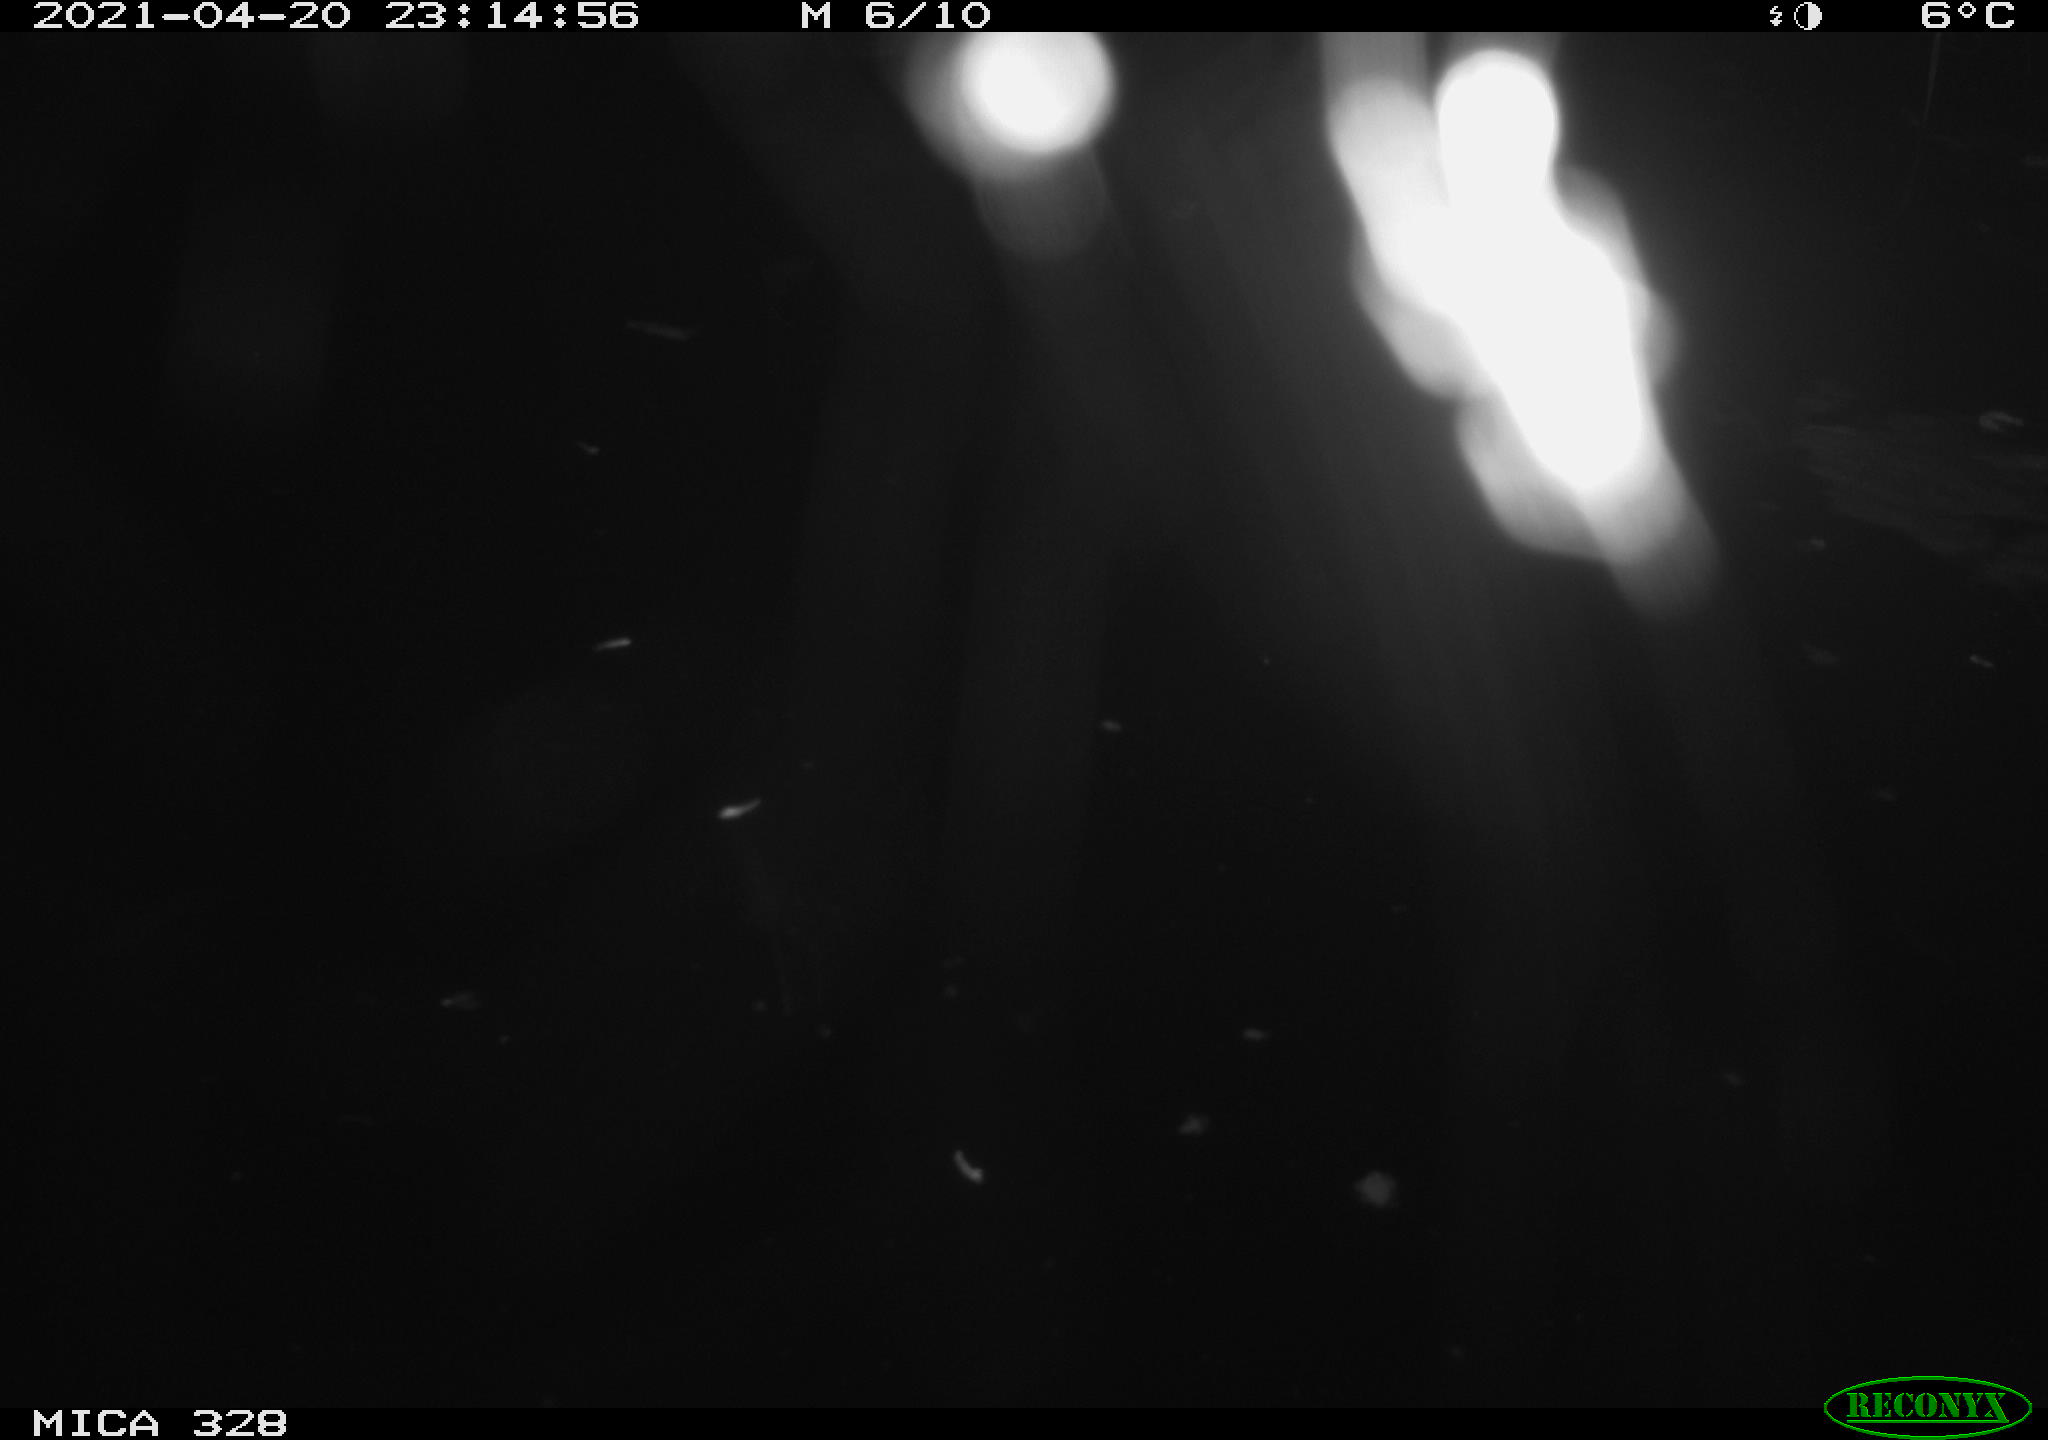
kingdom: Animalia
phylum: Chordata
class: Mammalia
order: Rodentia
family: Cricetidae
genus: Ondatra
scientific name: Ondatra zibethicus
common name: Muskrat
